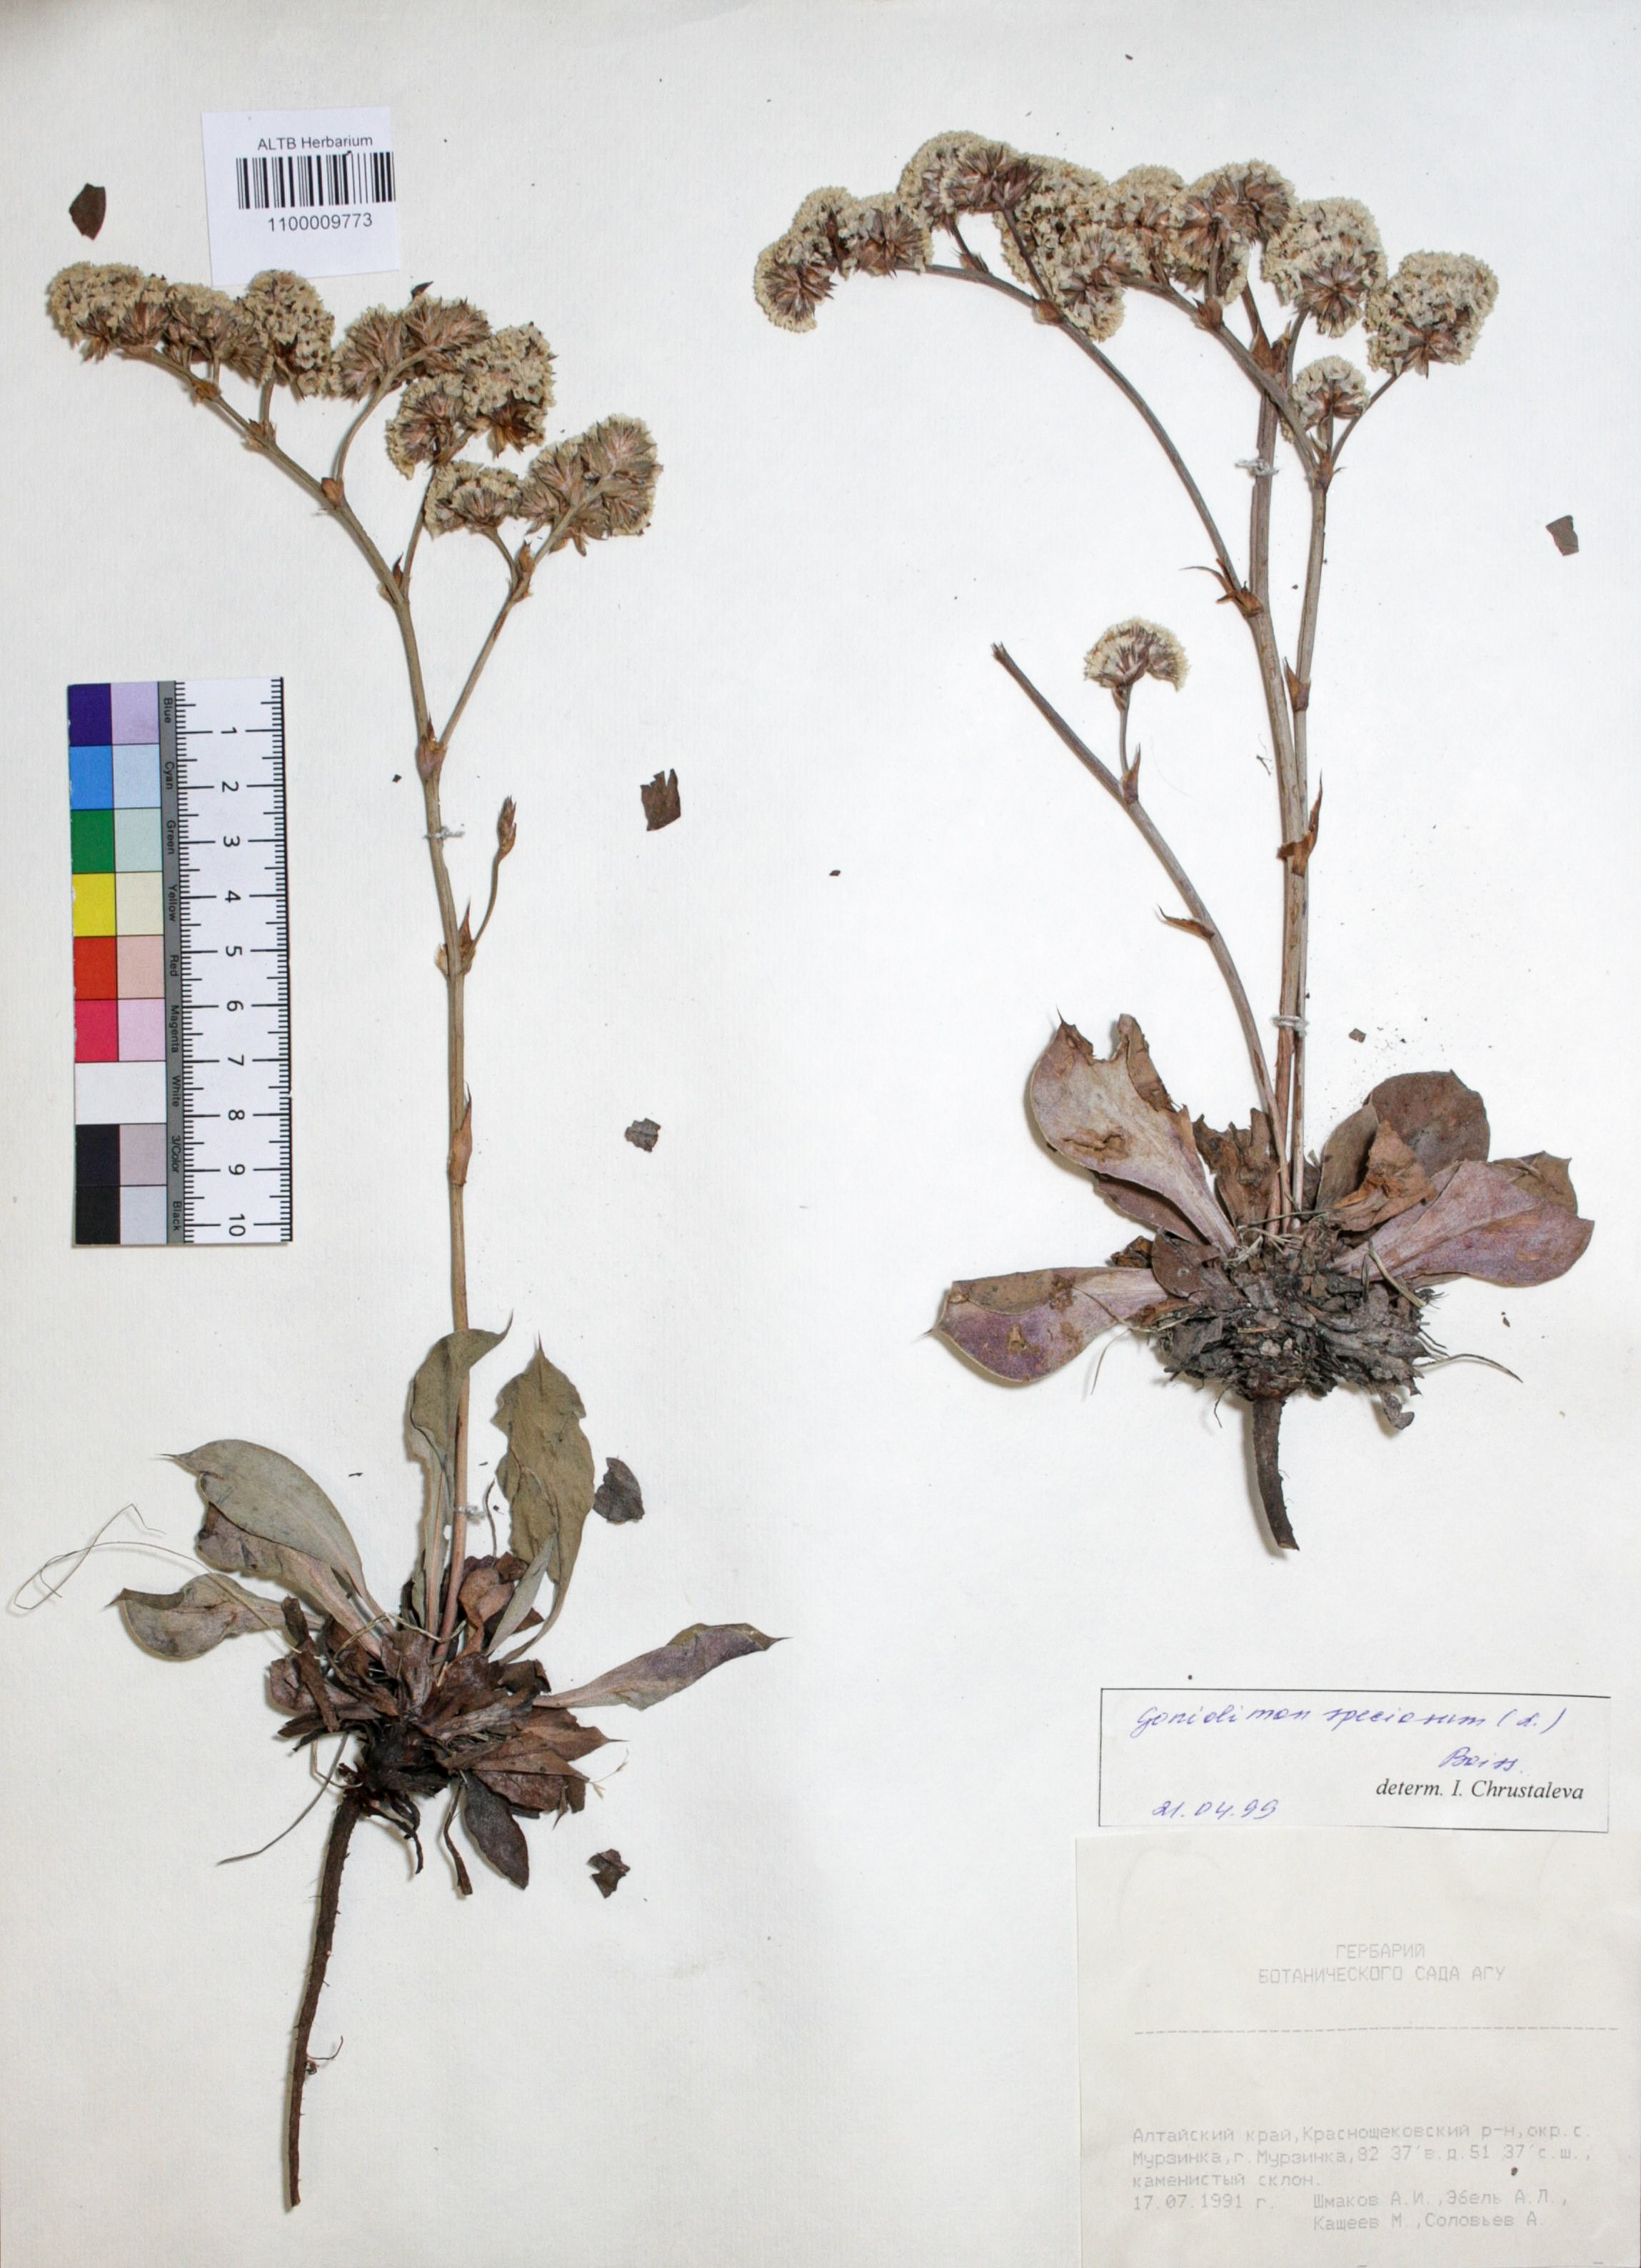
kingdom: Plantae
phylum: Tracheophyta
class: Magnoliopsida
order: Caryophyllales
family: Plumbaginaceae
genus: Goniolimon
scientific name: Goniolimon speciosum
